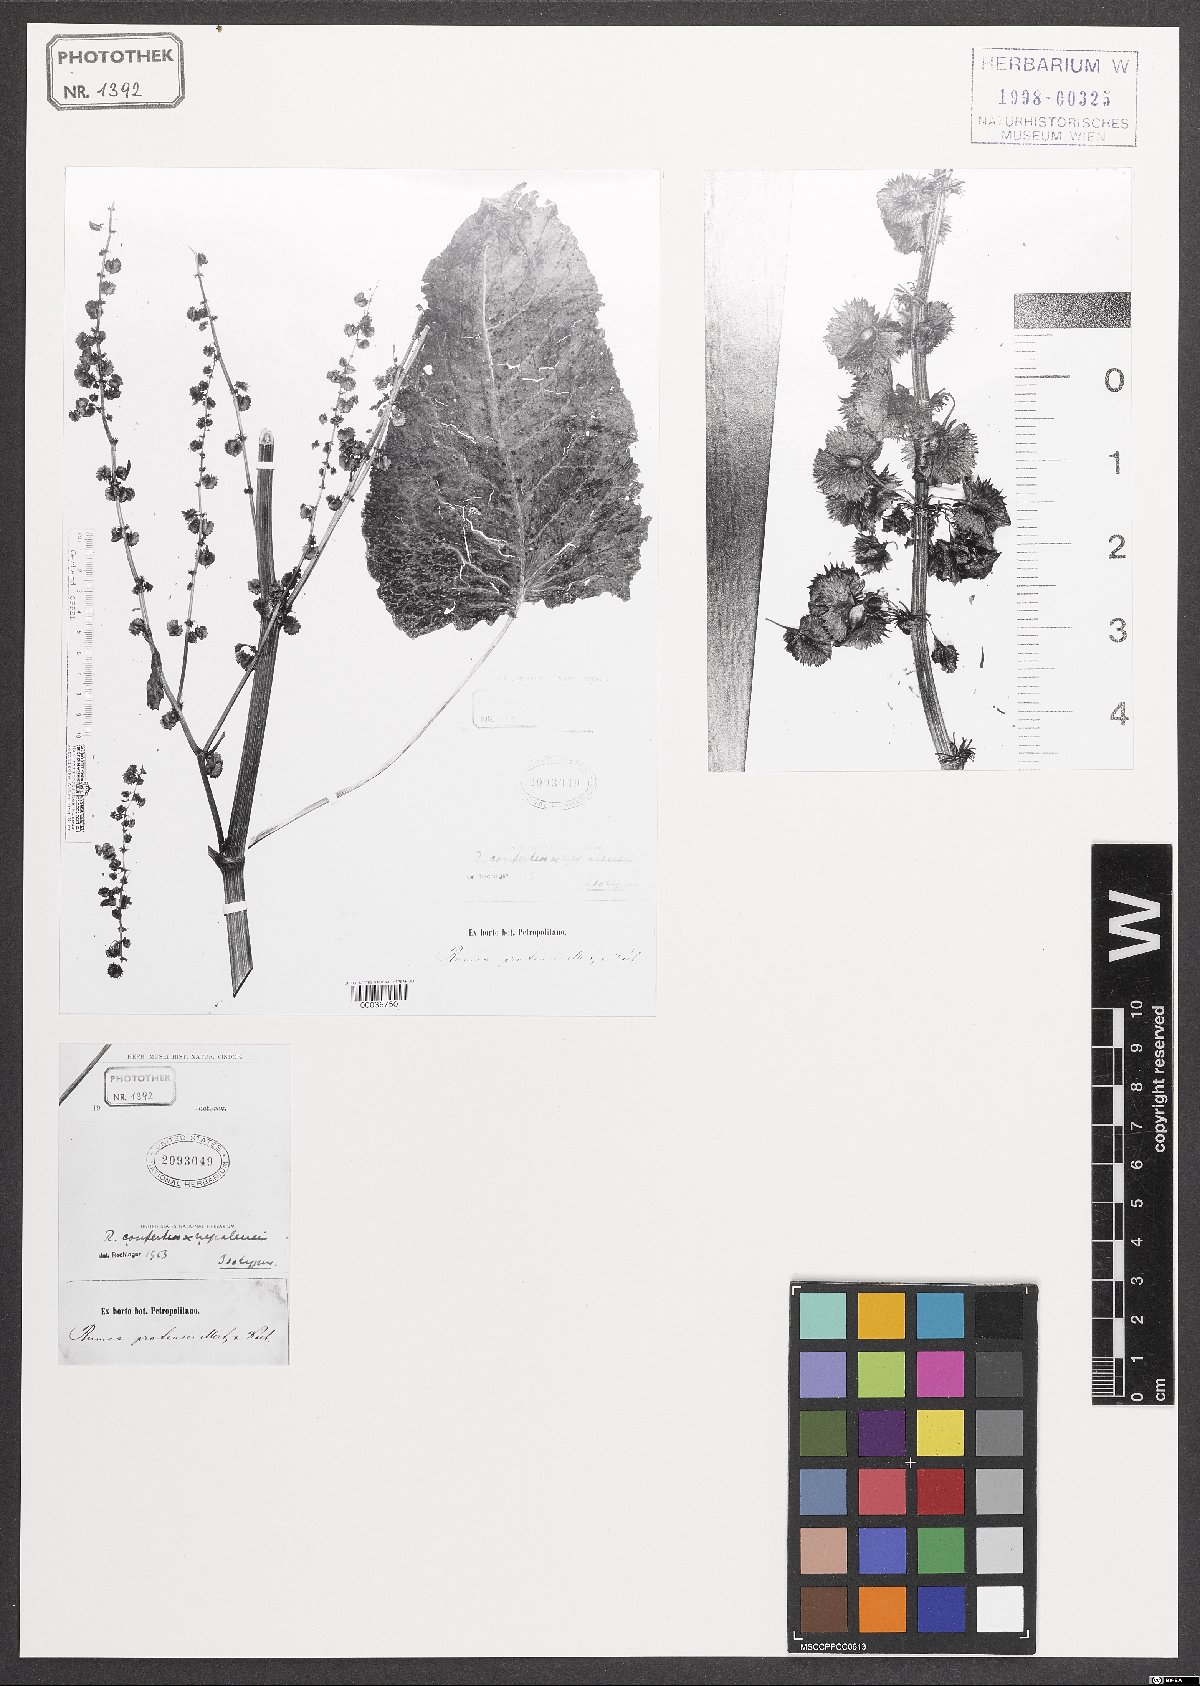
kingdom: Plantae
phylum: Tracheophyta
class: Magnoliopsida
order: Caryophyllales
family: Polygonaceae
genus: Rumex
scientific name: Rumex
